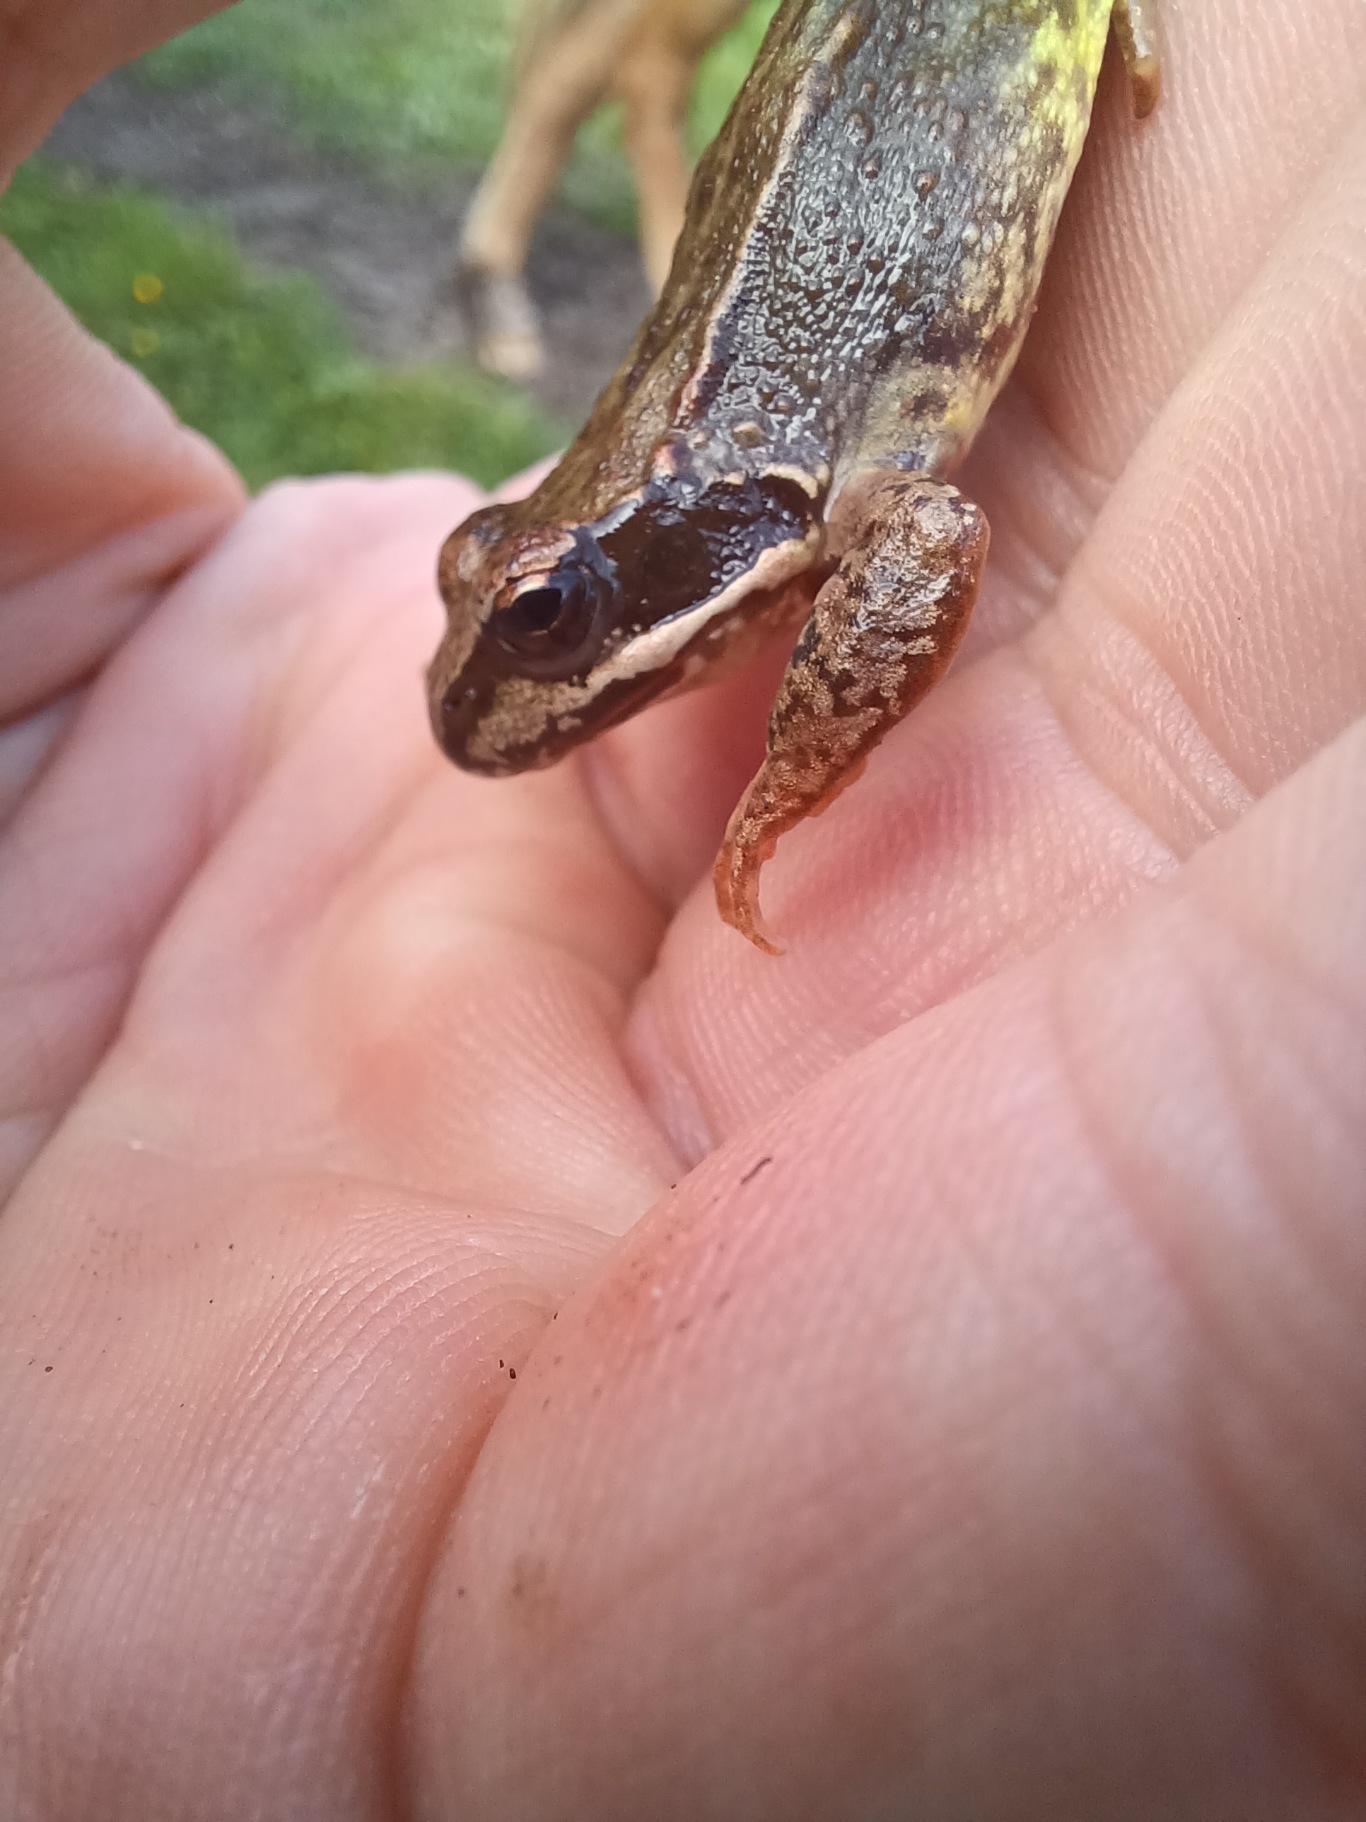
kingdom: Animalia
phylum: Chordata
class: Amphibia
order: Anura
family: Ranidae
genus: Rana
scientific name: Rana temporaria
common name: Butsnudet frø
